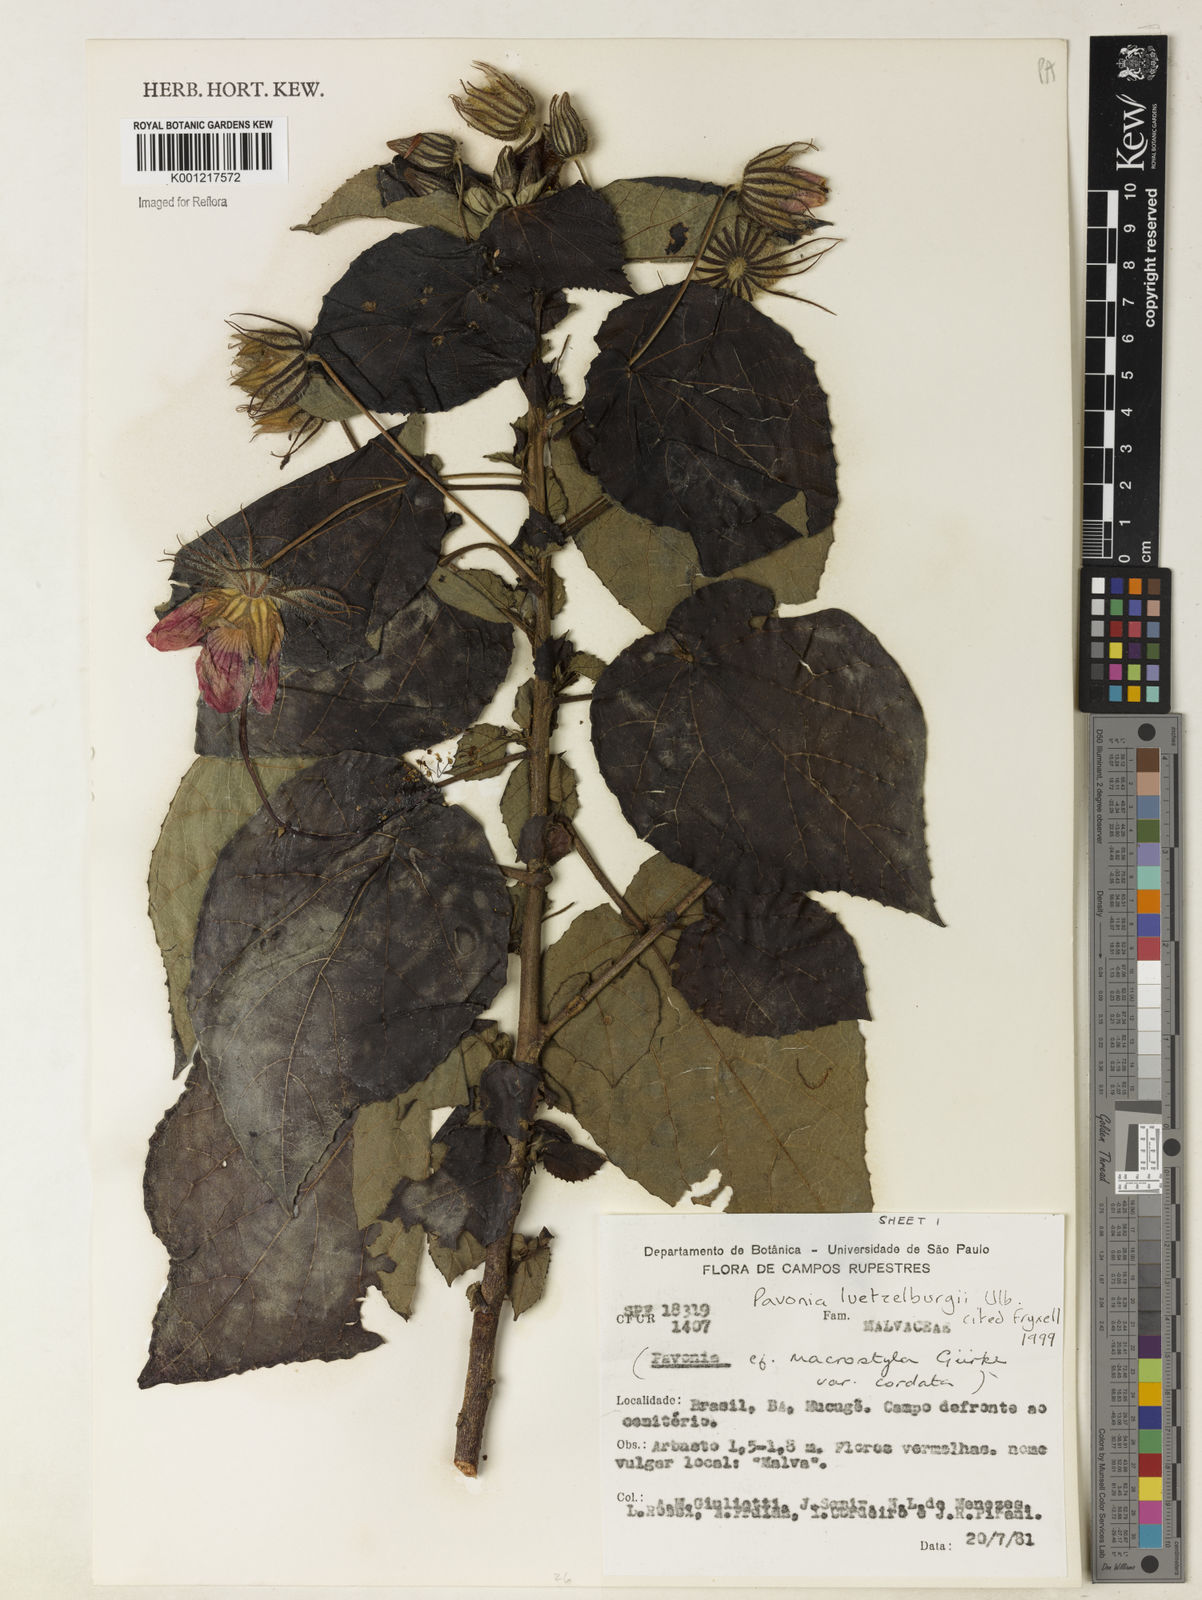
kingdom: Plantae
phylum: Tracheophyta
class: Magnoliopsida
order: Malvales
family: Malvaceae
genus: Pavonia
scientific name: Pavonia luetzelburgii
